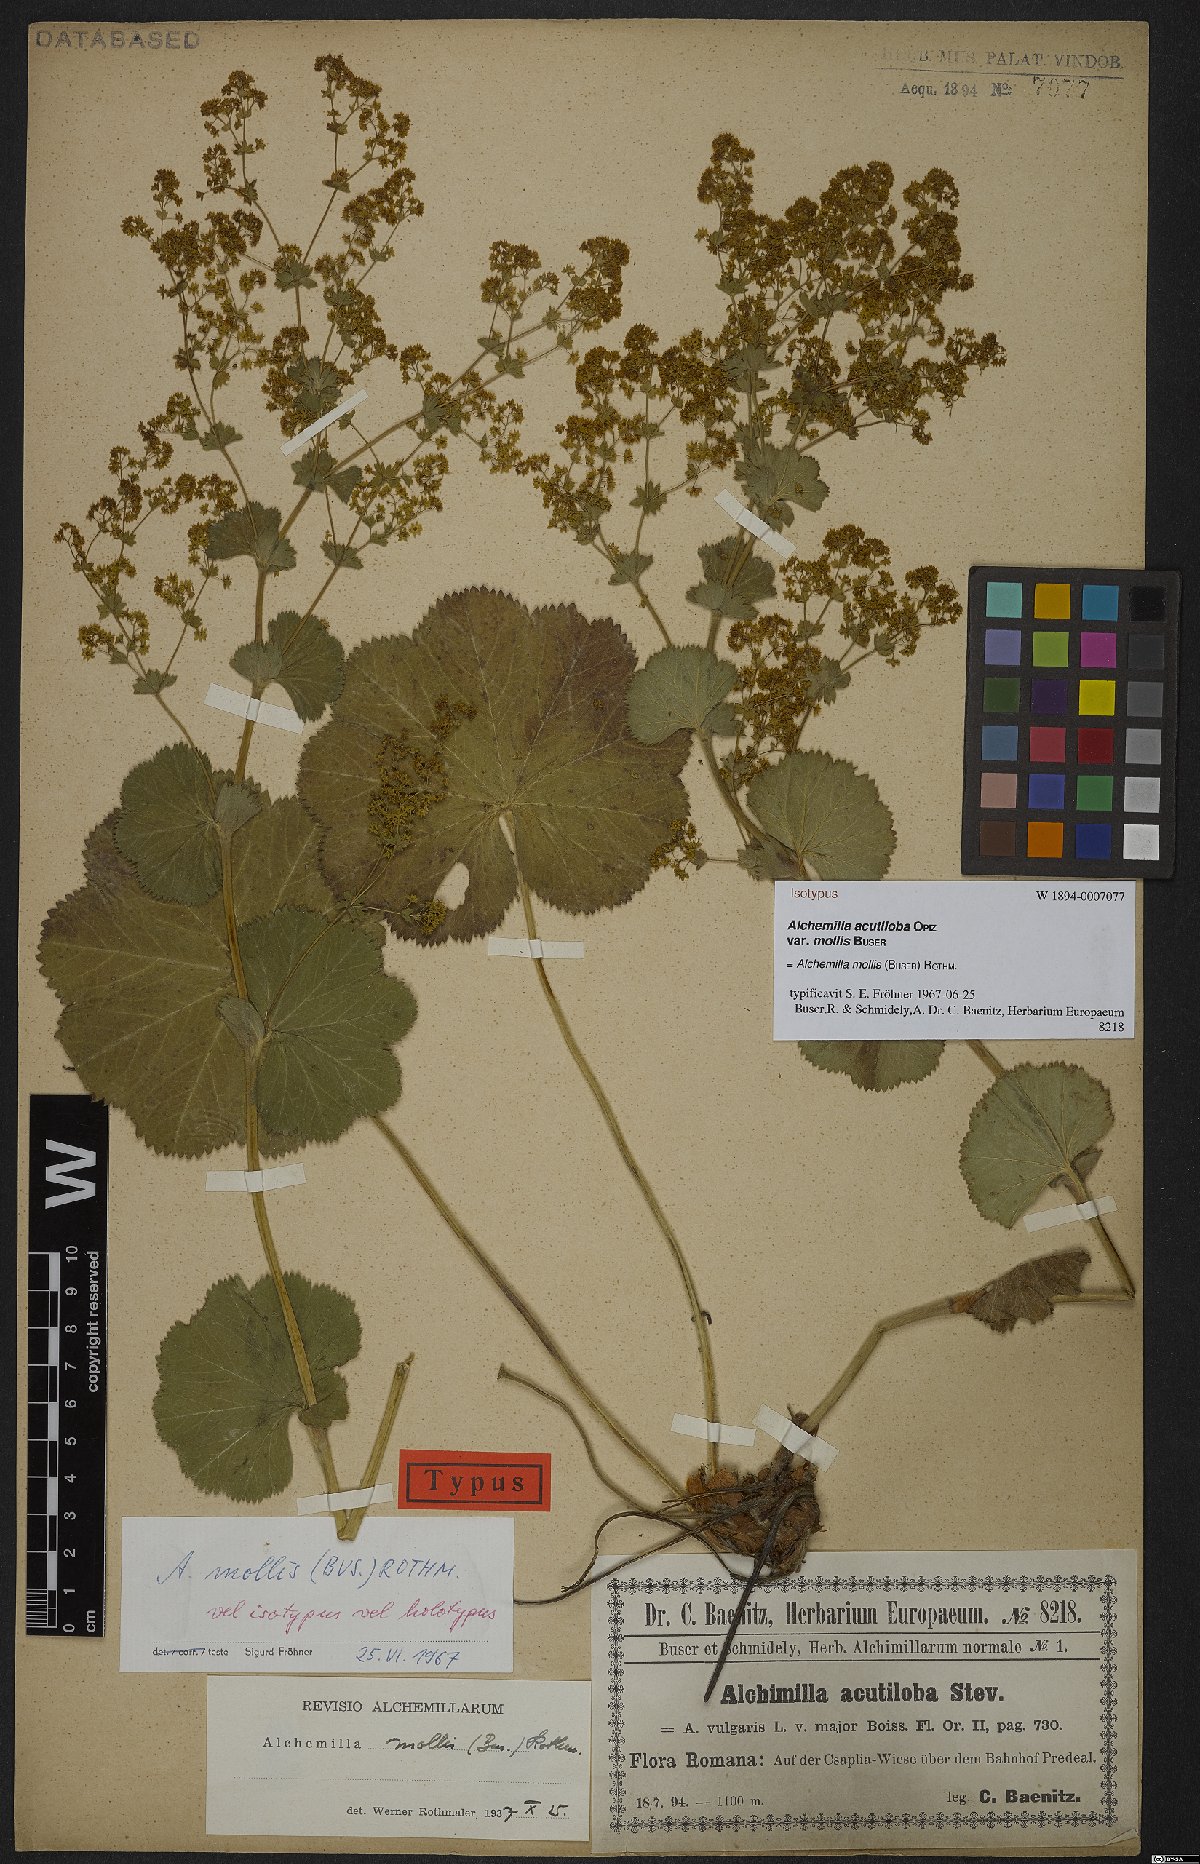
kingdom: Plantae
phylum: Tracheophyta
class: Magnoliopsida
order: Rosales
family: Rosaceae
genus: Alchemilla
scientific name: Alchemilla mollis
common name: Lady's-mantle
